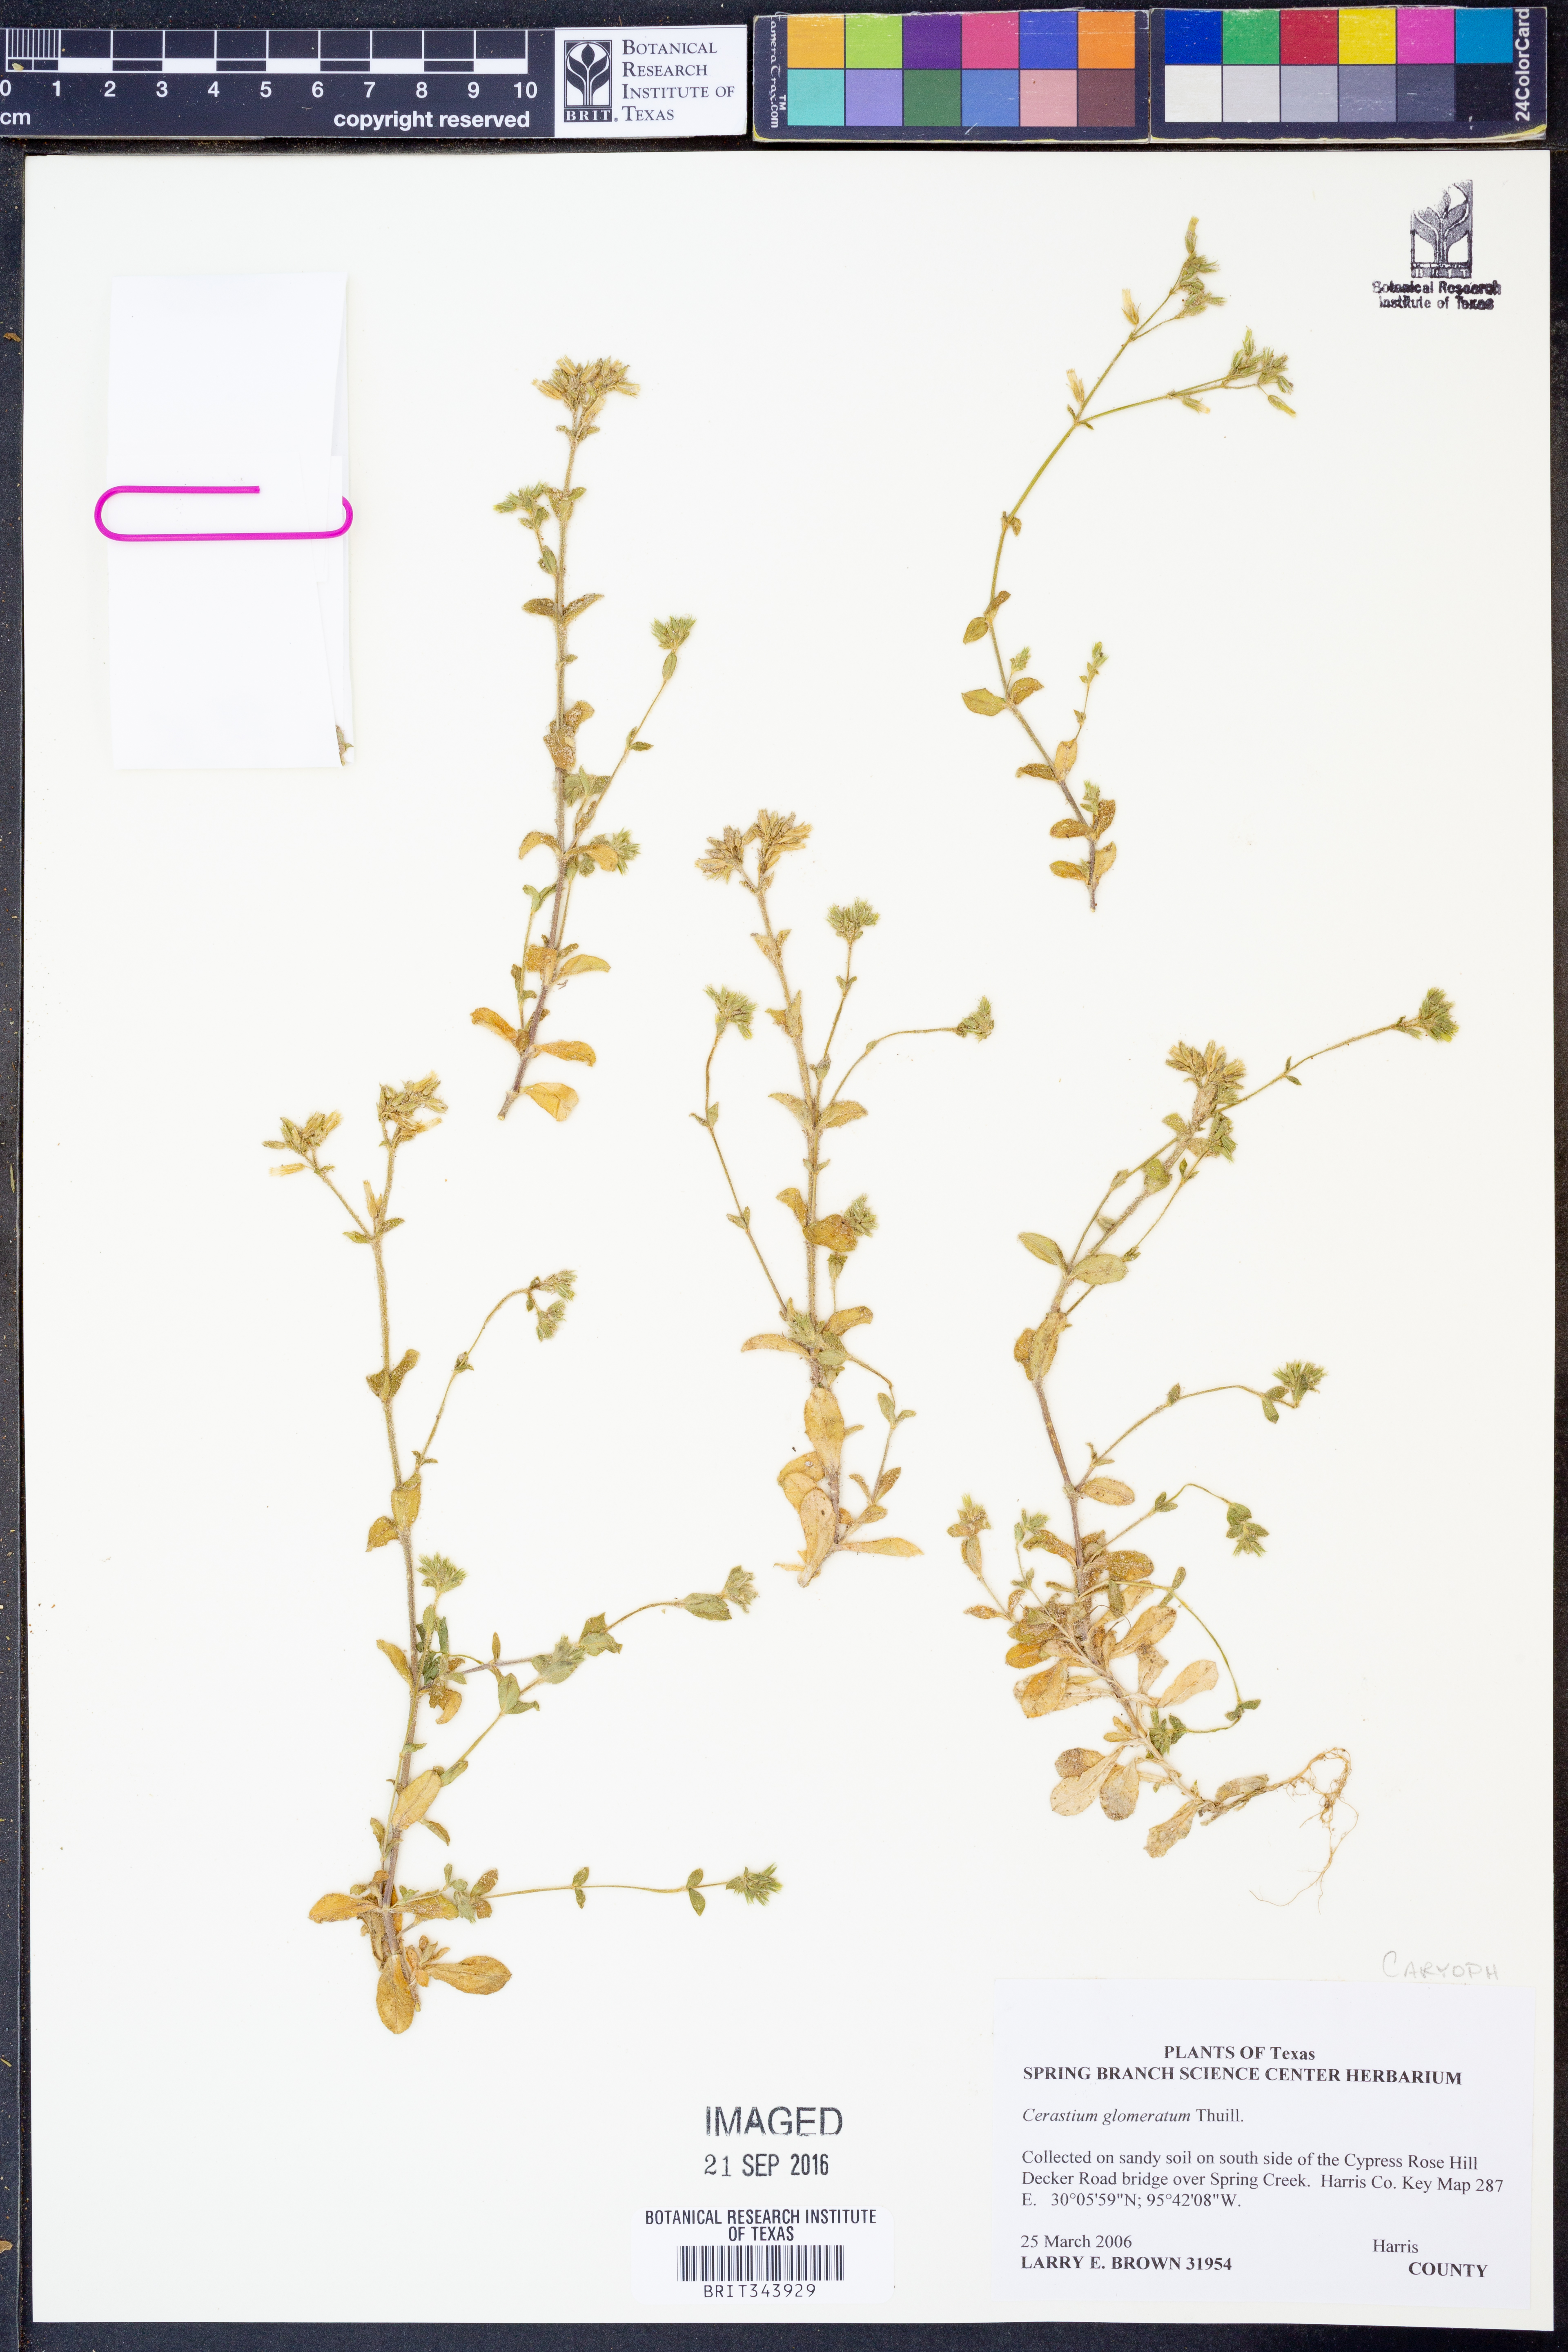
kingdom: Plantae
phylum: Tracheophyta
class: Magnoliopsida
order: Caryophyllales
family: Caryophyllaceae
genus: Cerastium
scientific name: Cerastium glomeratum
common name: Sticky chickweed
